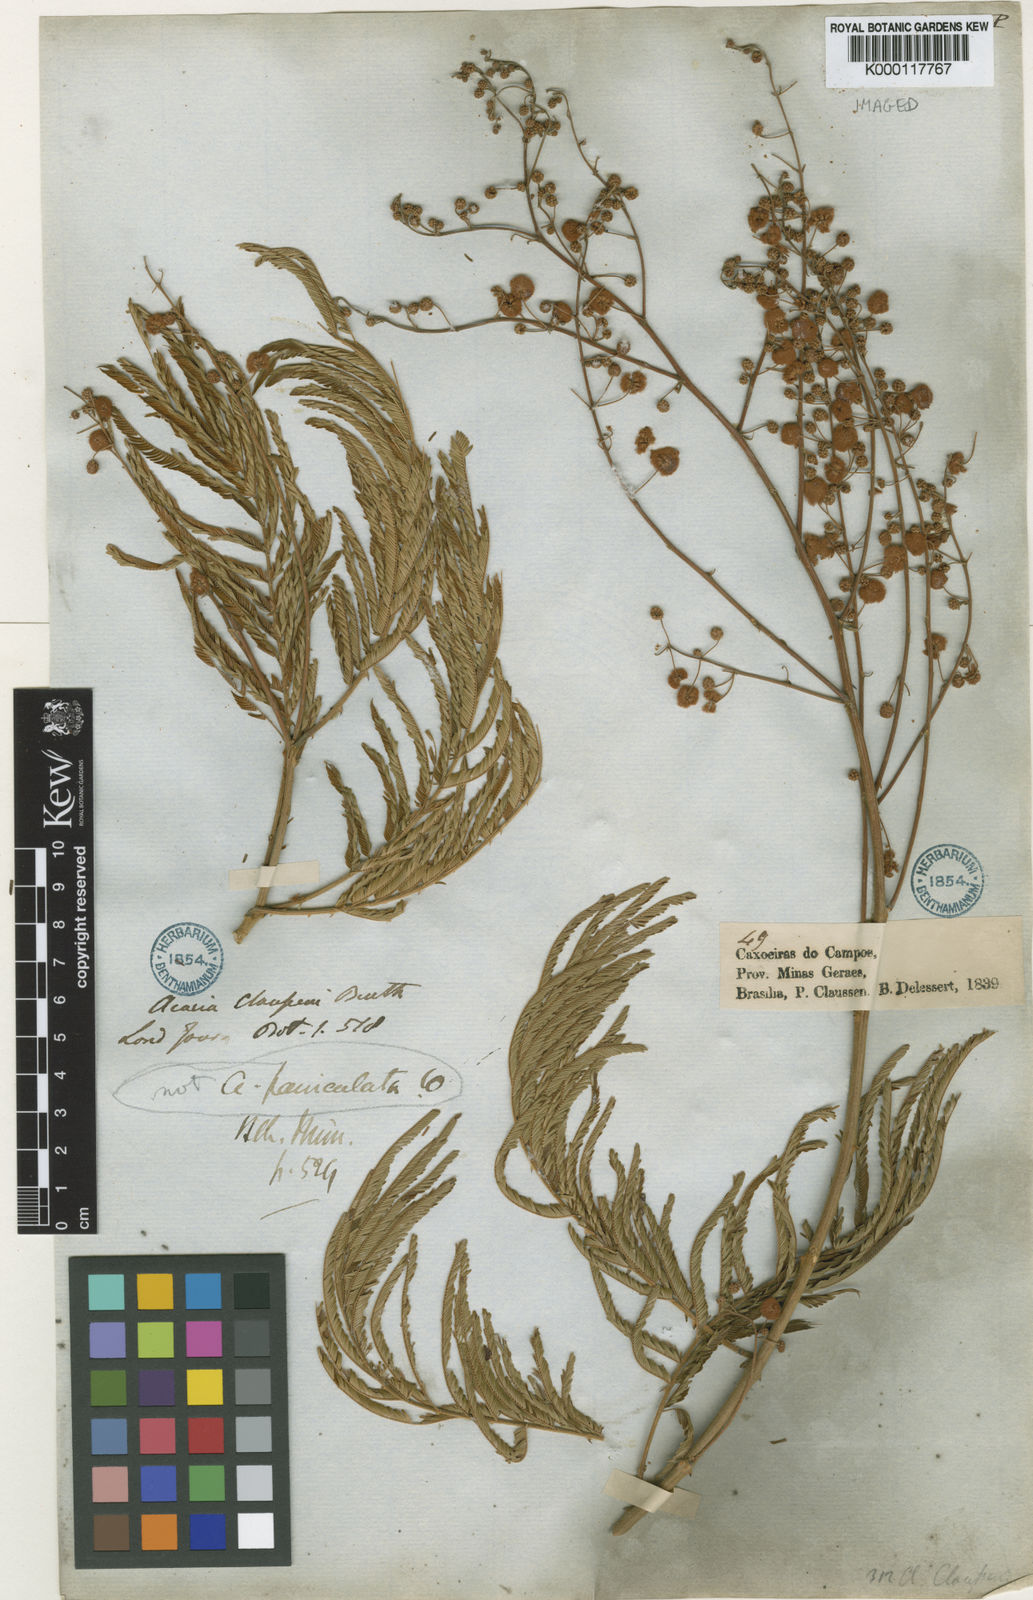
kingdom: Plantae
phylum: Tracheophyta
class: Magnoliopsida
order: Fabales
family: Fabaceae
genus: Senegalia
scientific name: Senegalia tenuifolia
